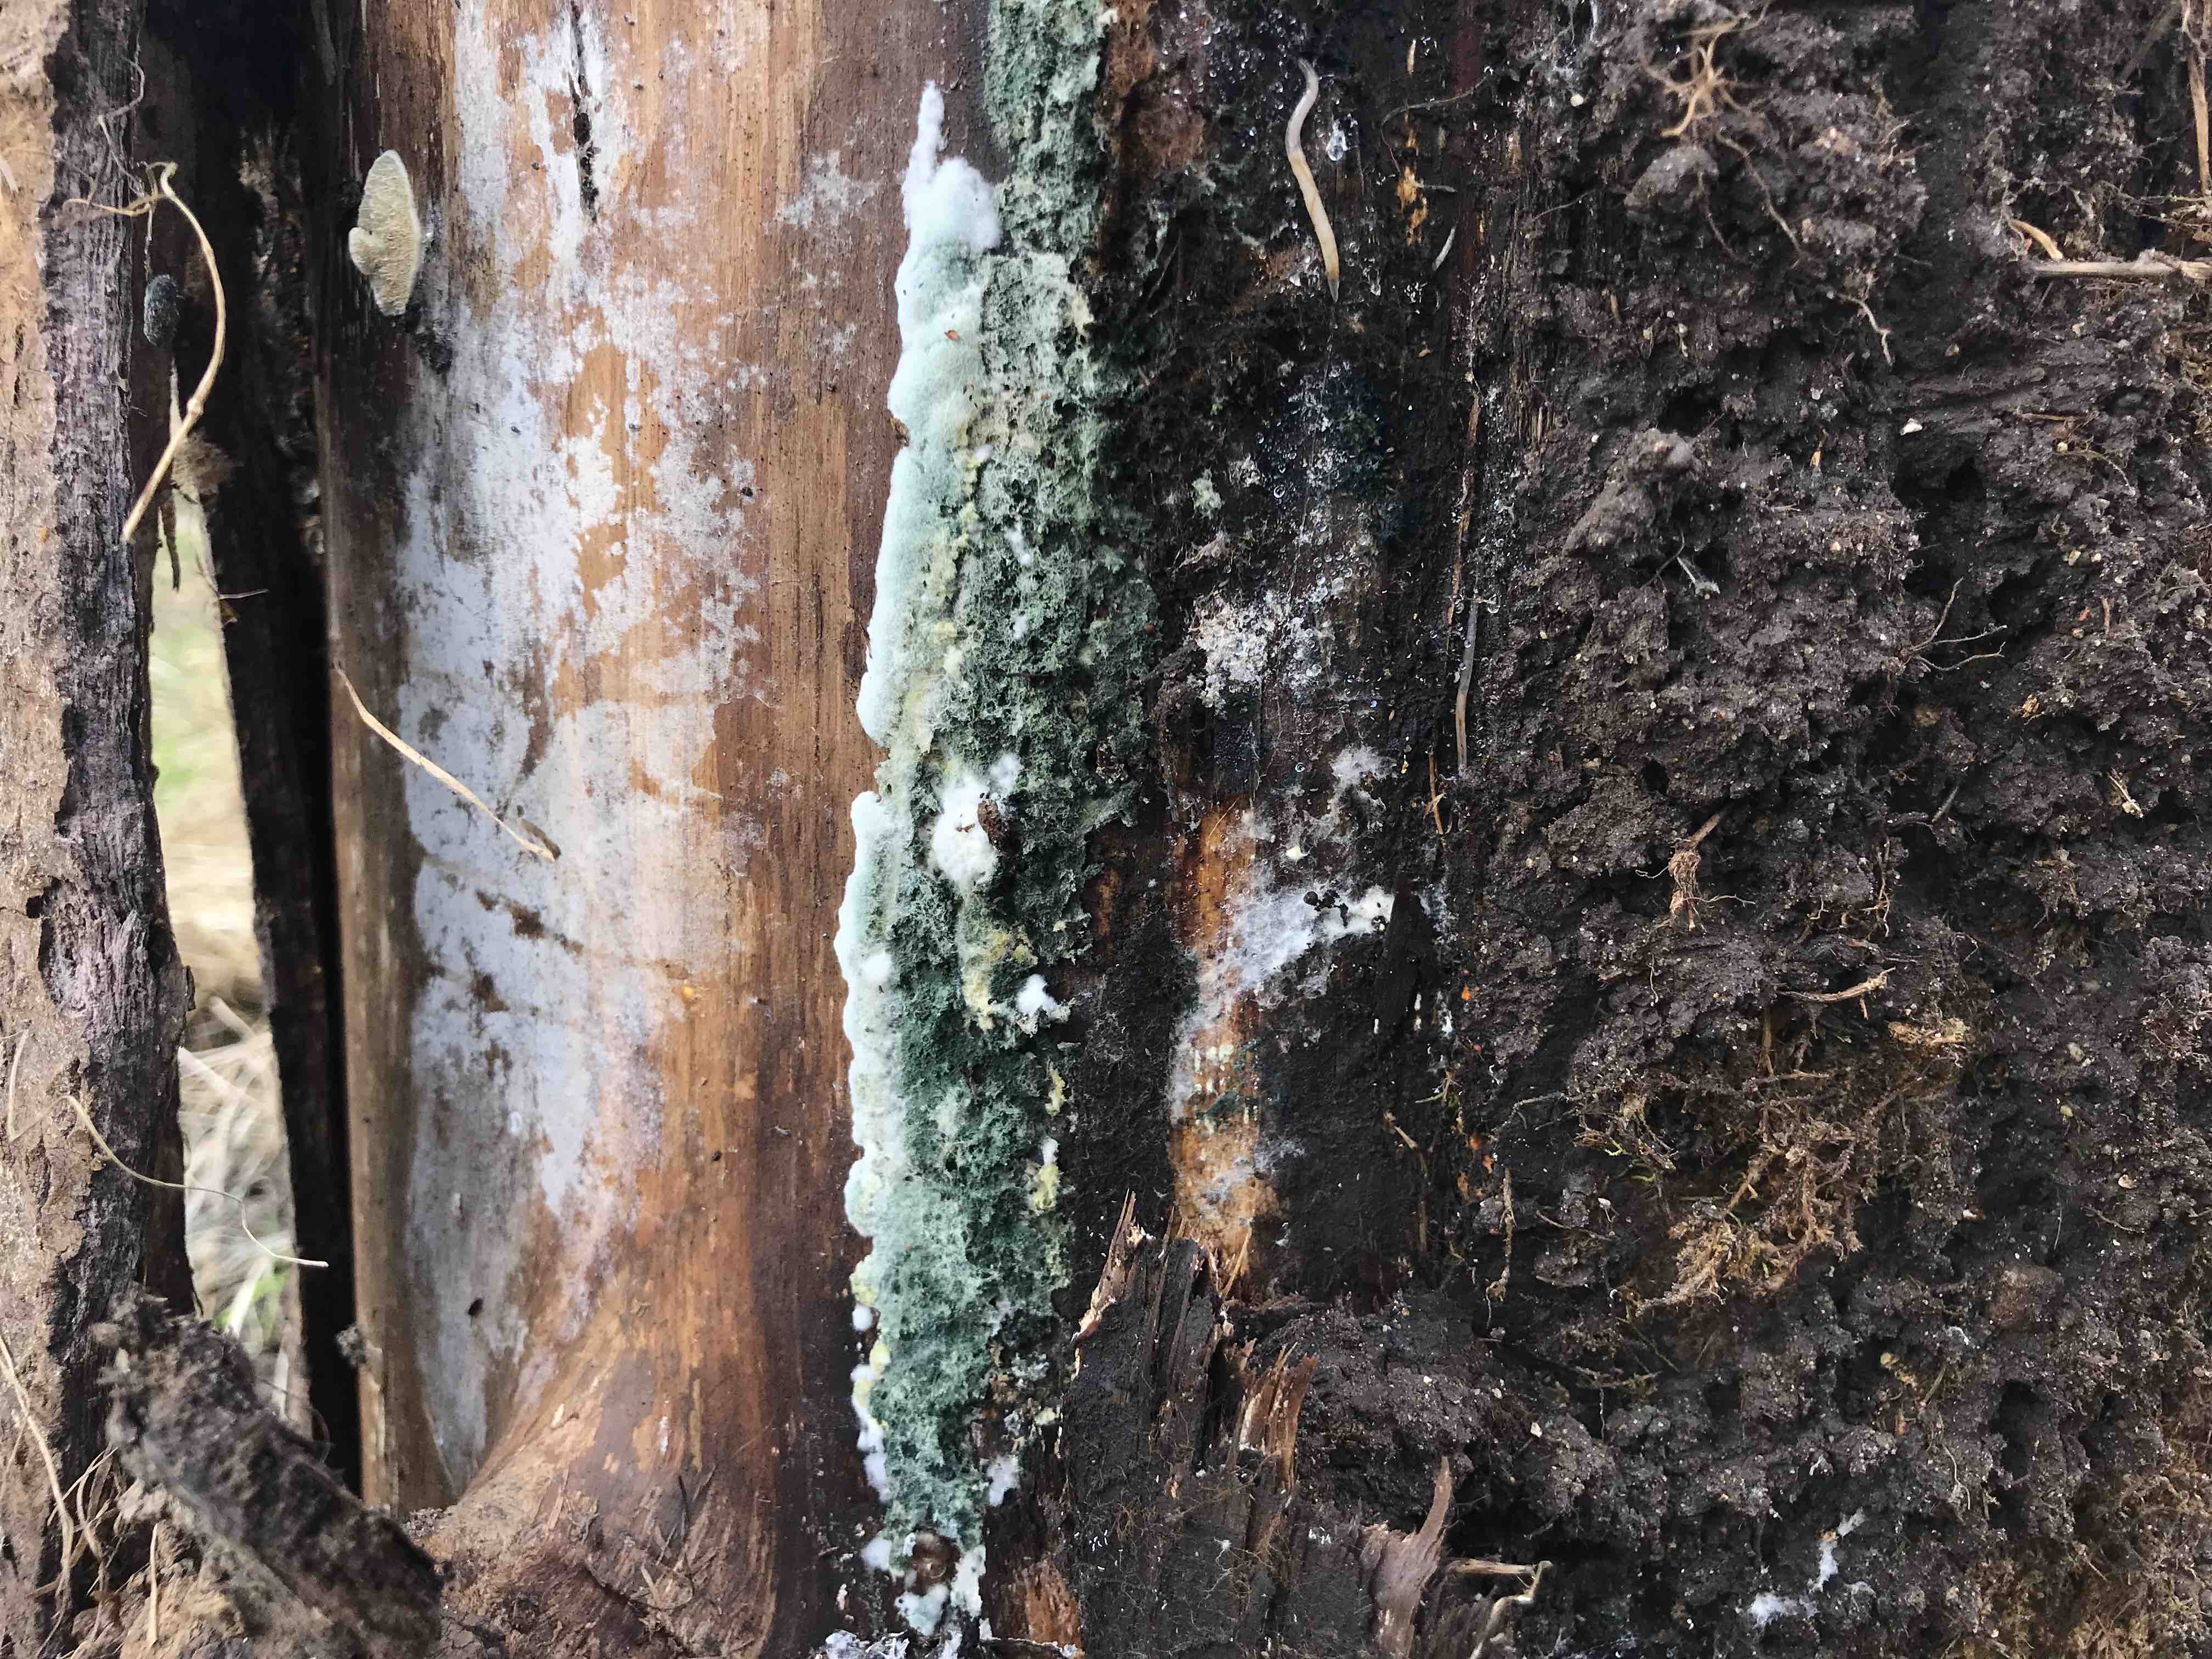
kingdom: Fungi
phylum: Ascomycota
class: Sordariomycetes
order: Hypocreales
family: Hypocreaceae
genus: Trichoderma
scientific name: Trichoderma
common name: kødkerne
